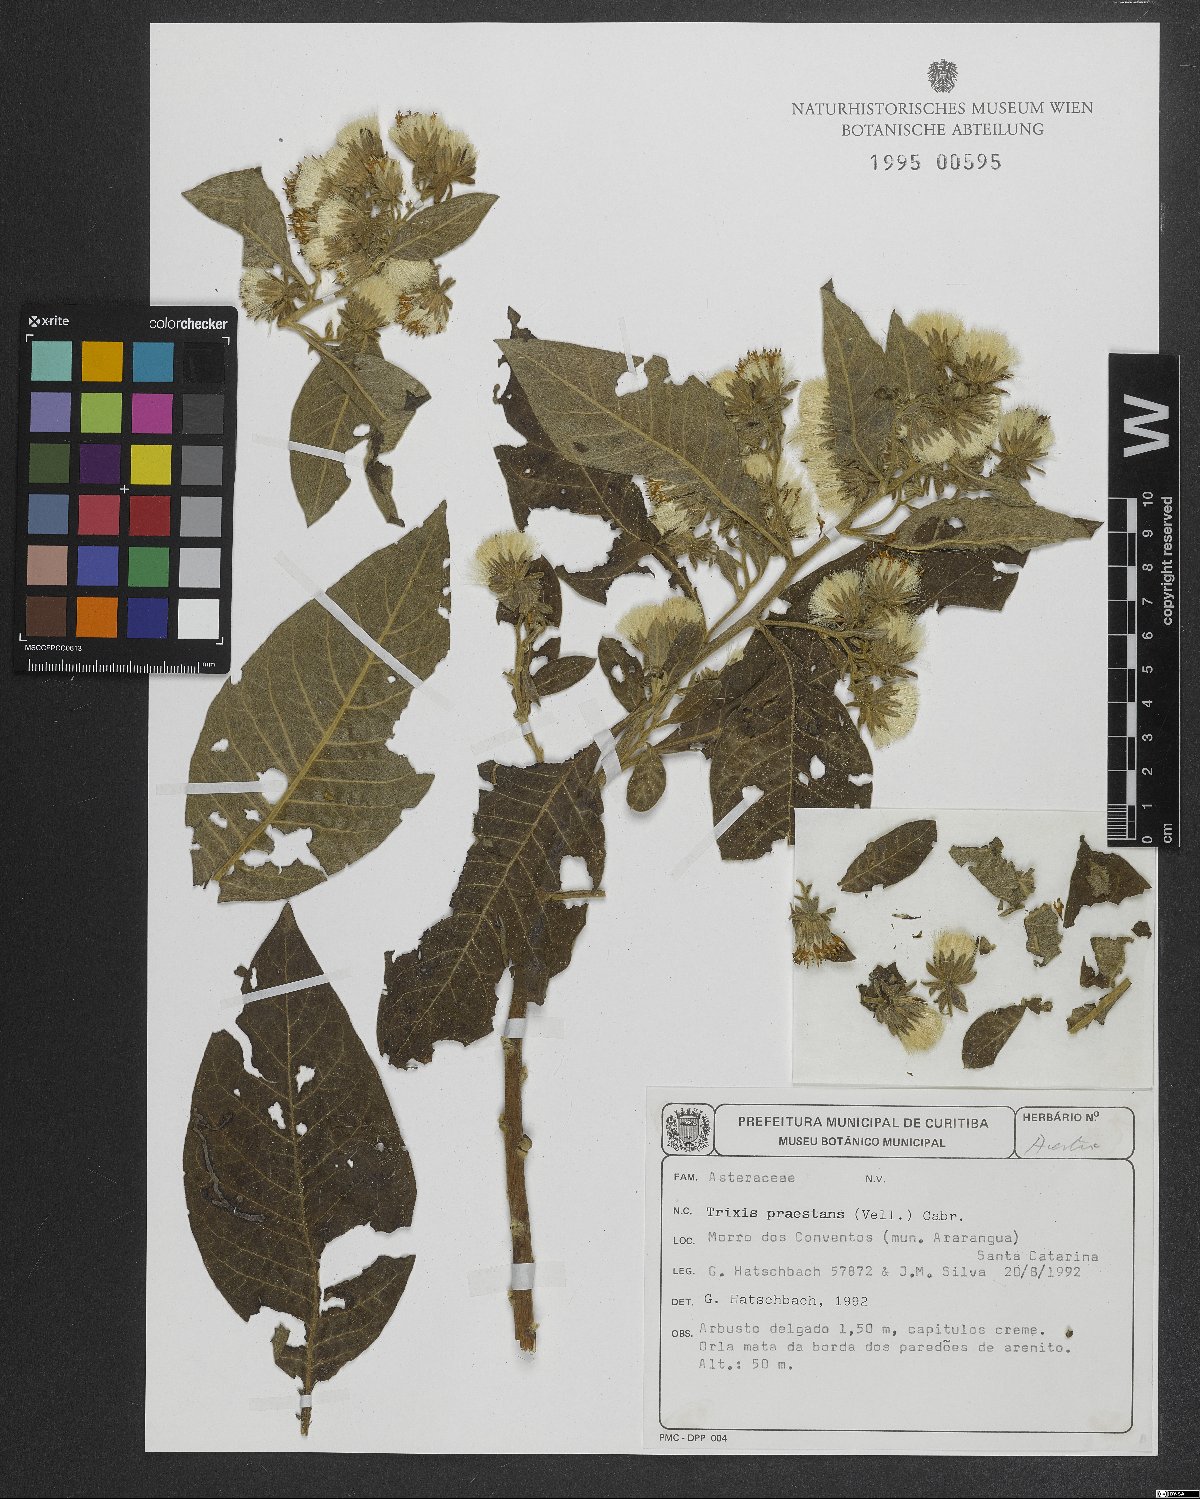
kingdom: Plantae
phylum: Tracheophyta
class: Magnoliopsida
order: Asterales
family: Asteraceae
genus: Trixis
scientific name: Trixis praestans
